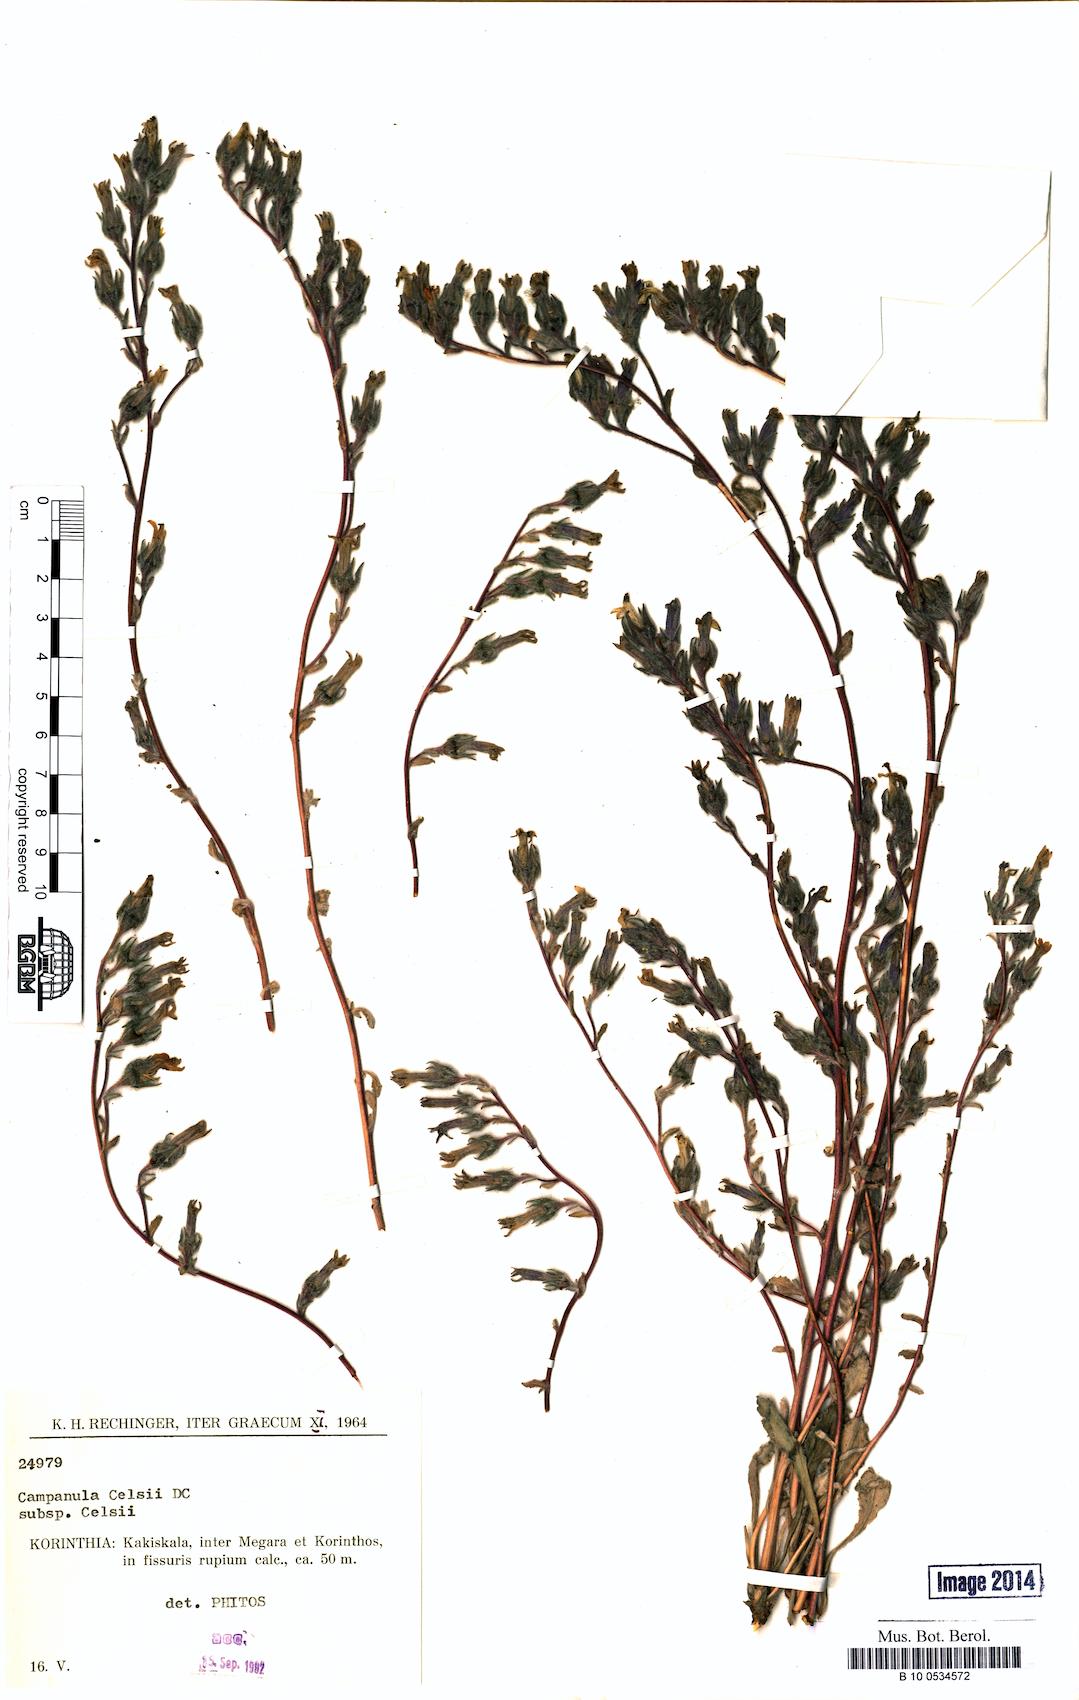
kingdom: Plantae
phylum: Tracheophyta
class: Magnoliopsida
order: Asterales
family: Campanulaceae
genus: Campanula
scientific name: Campanula celsii
